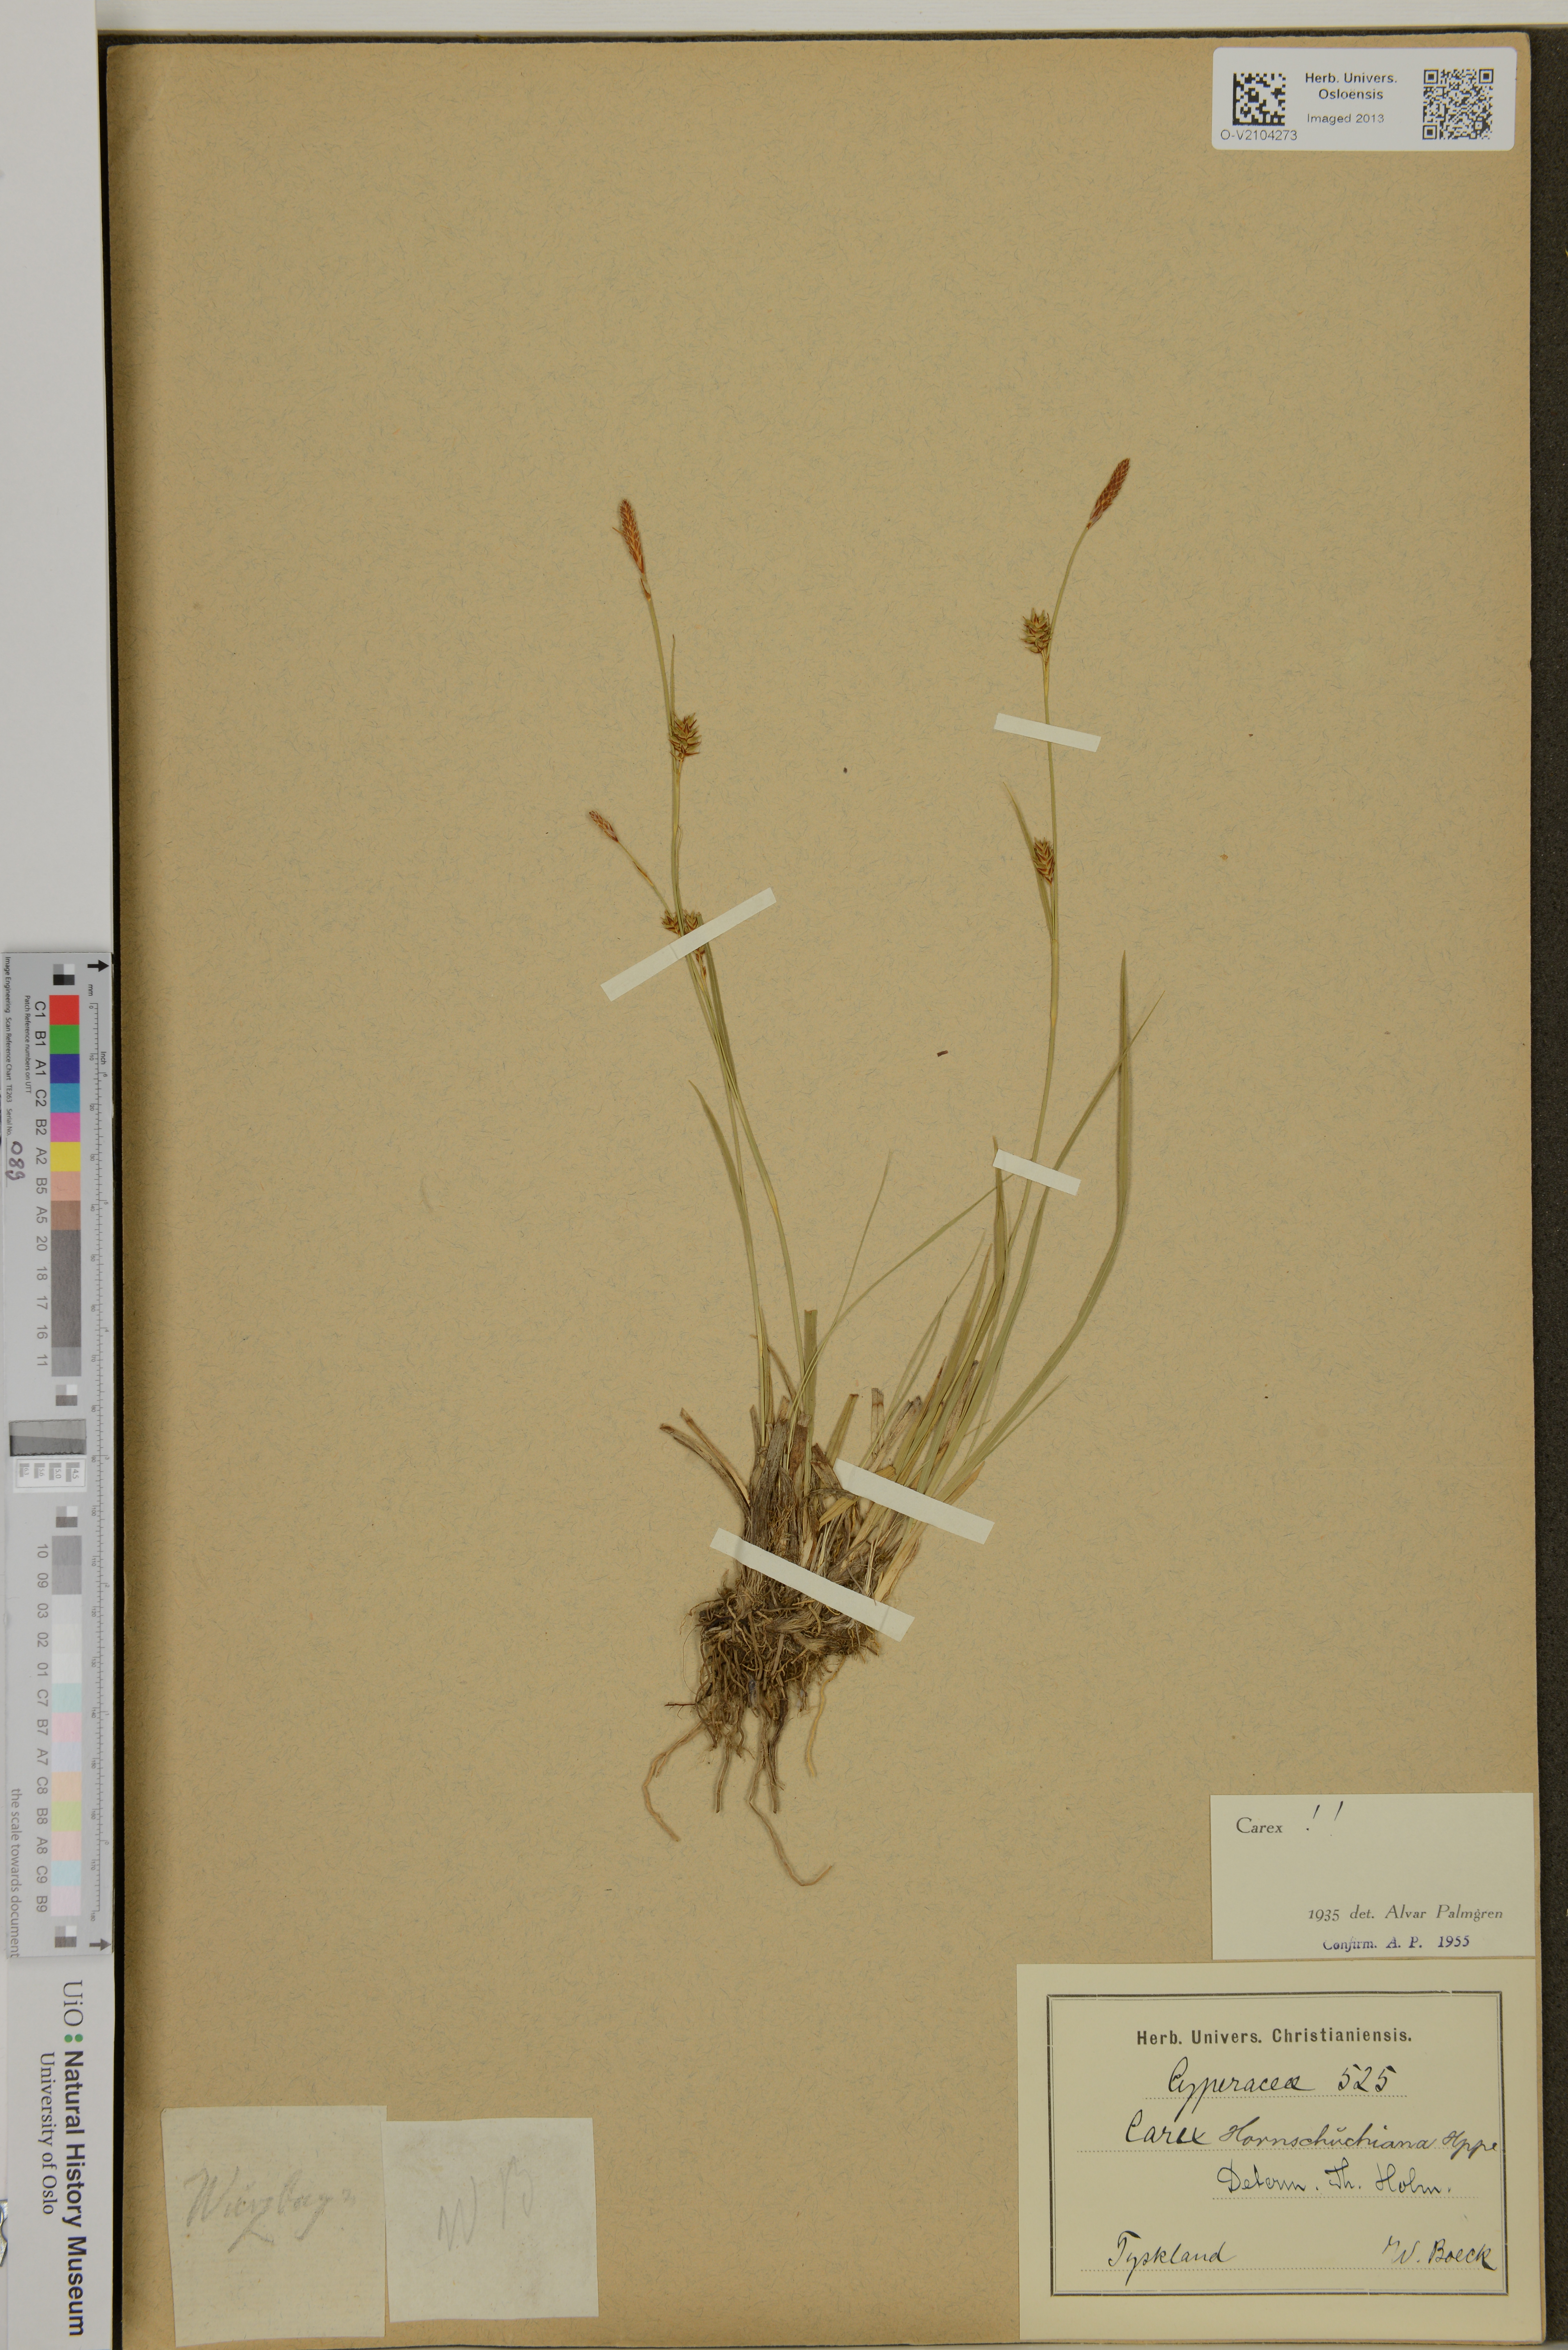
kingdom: Plantae
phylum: Tracheophyta
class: Liliopsida
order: Poales
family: Cyperaceae
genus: Carex
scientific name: Carex hostiana
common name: Tawny sedge
